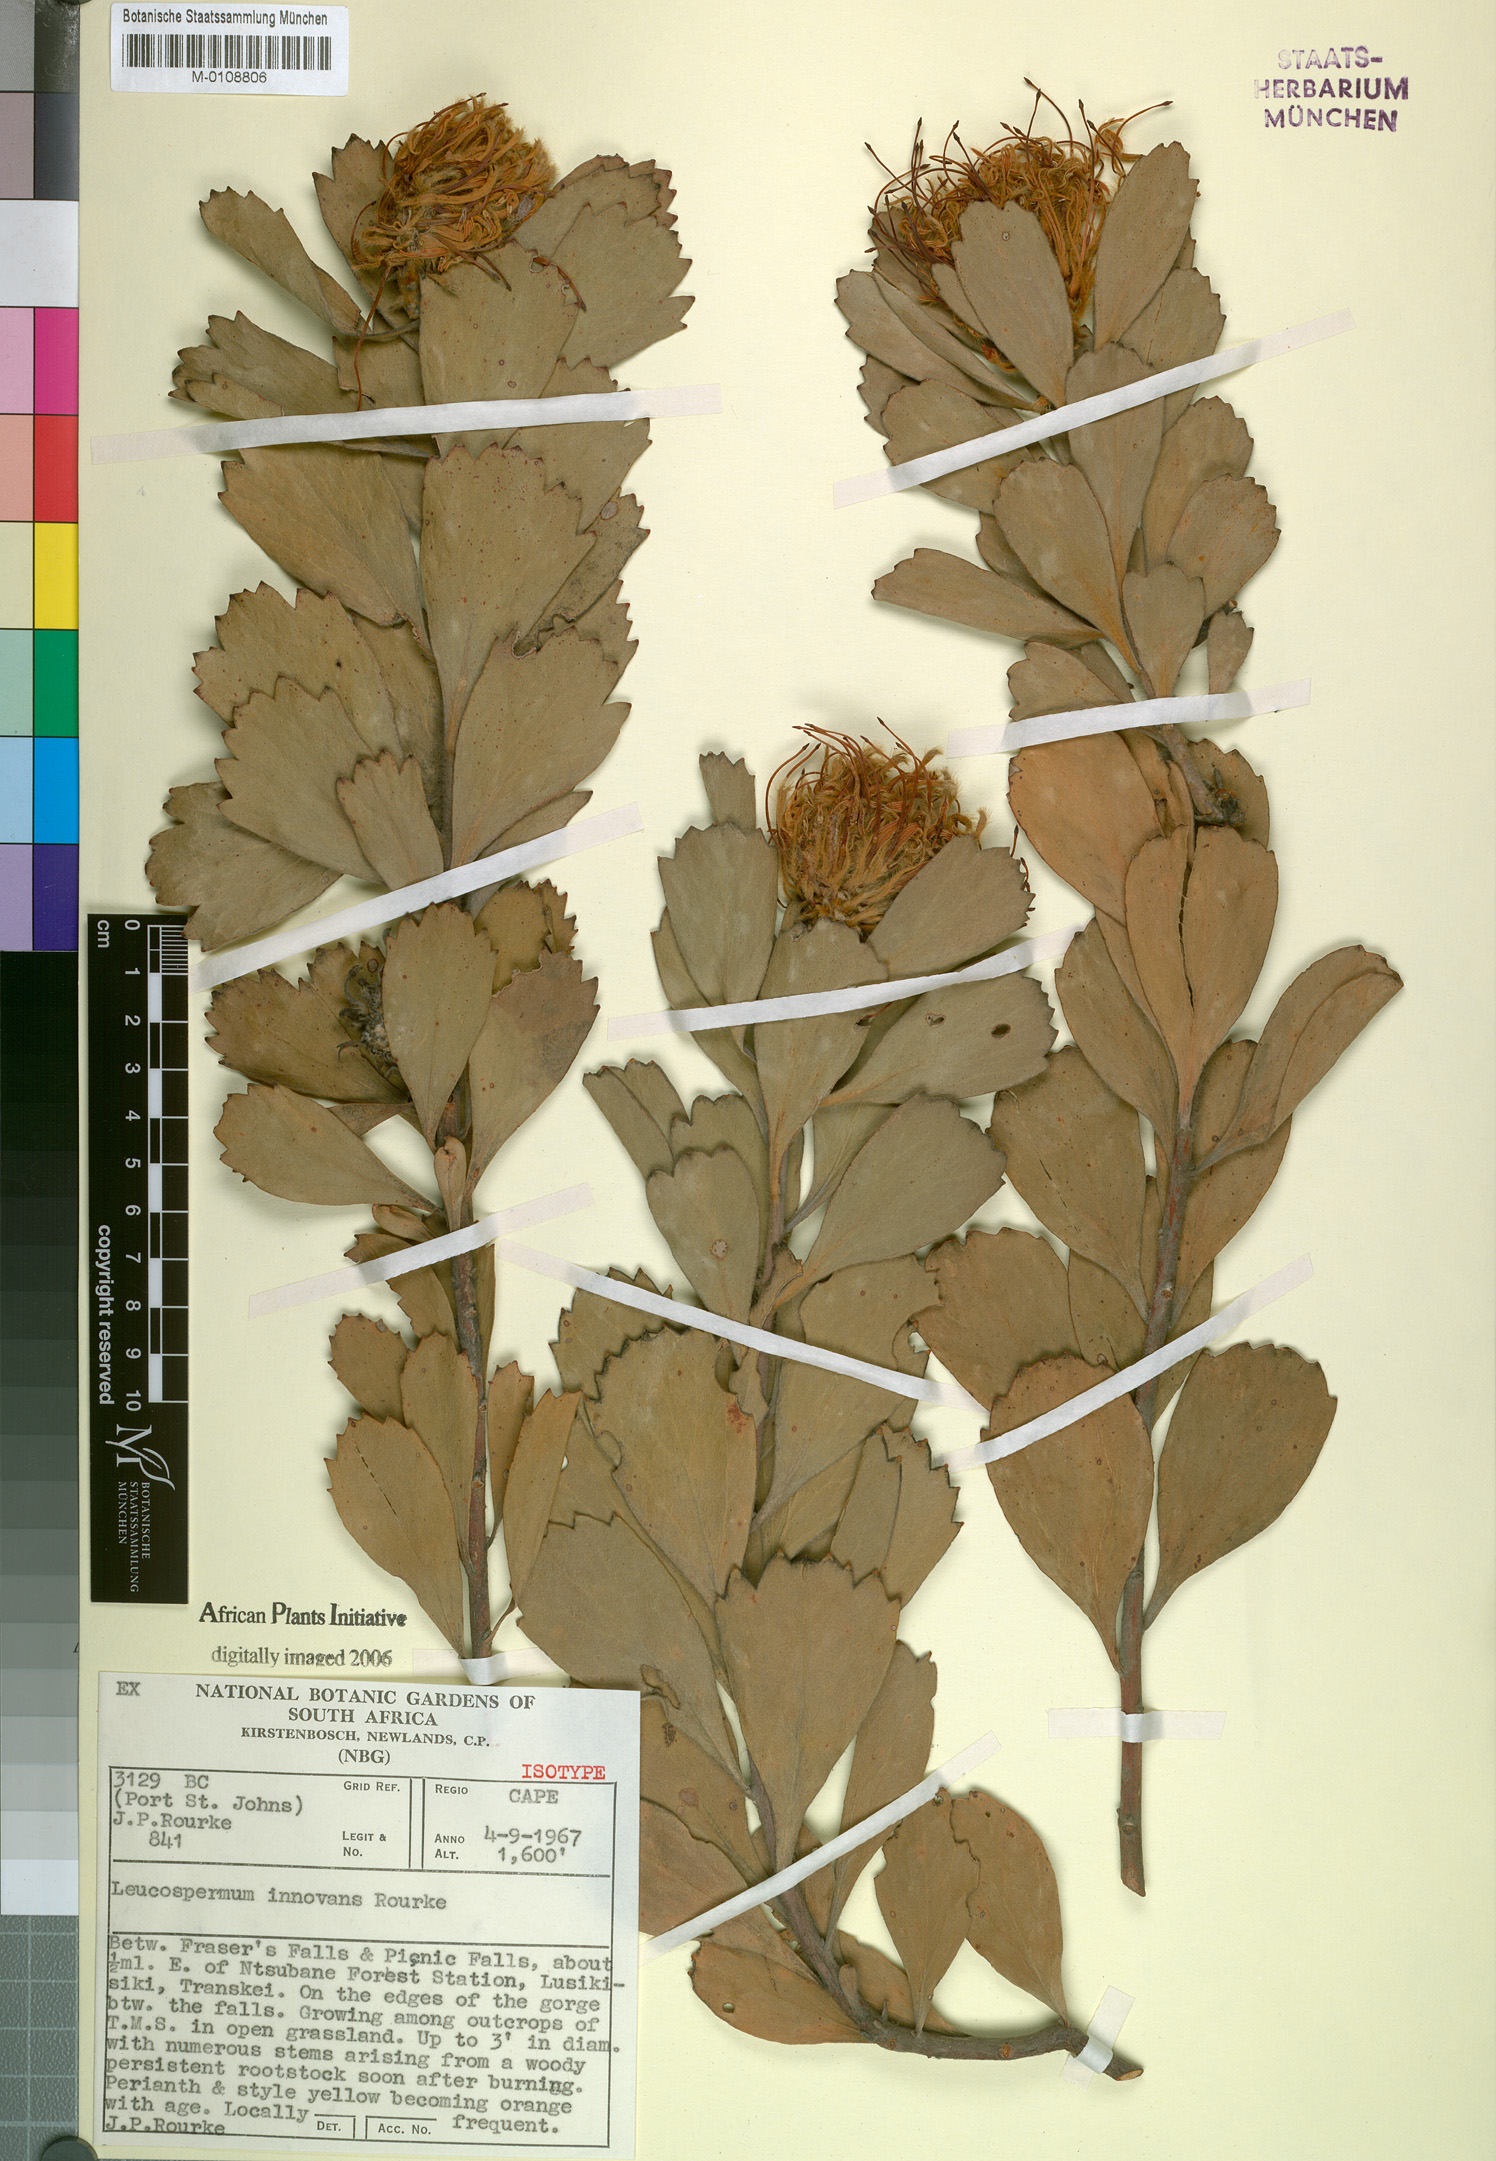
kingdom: Plantae
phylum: Tracheophyta
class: Magnoliopsida
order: Proteales
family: Proteaceae
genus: Leucospermum
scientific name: Leucospermum innovans
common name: Pondoland pincushion
